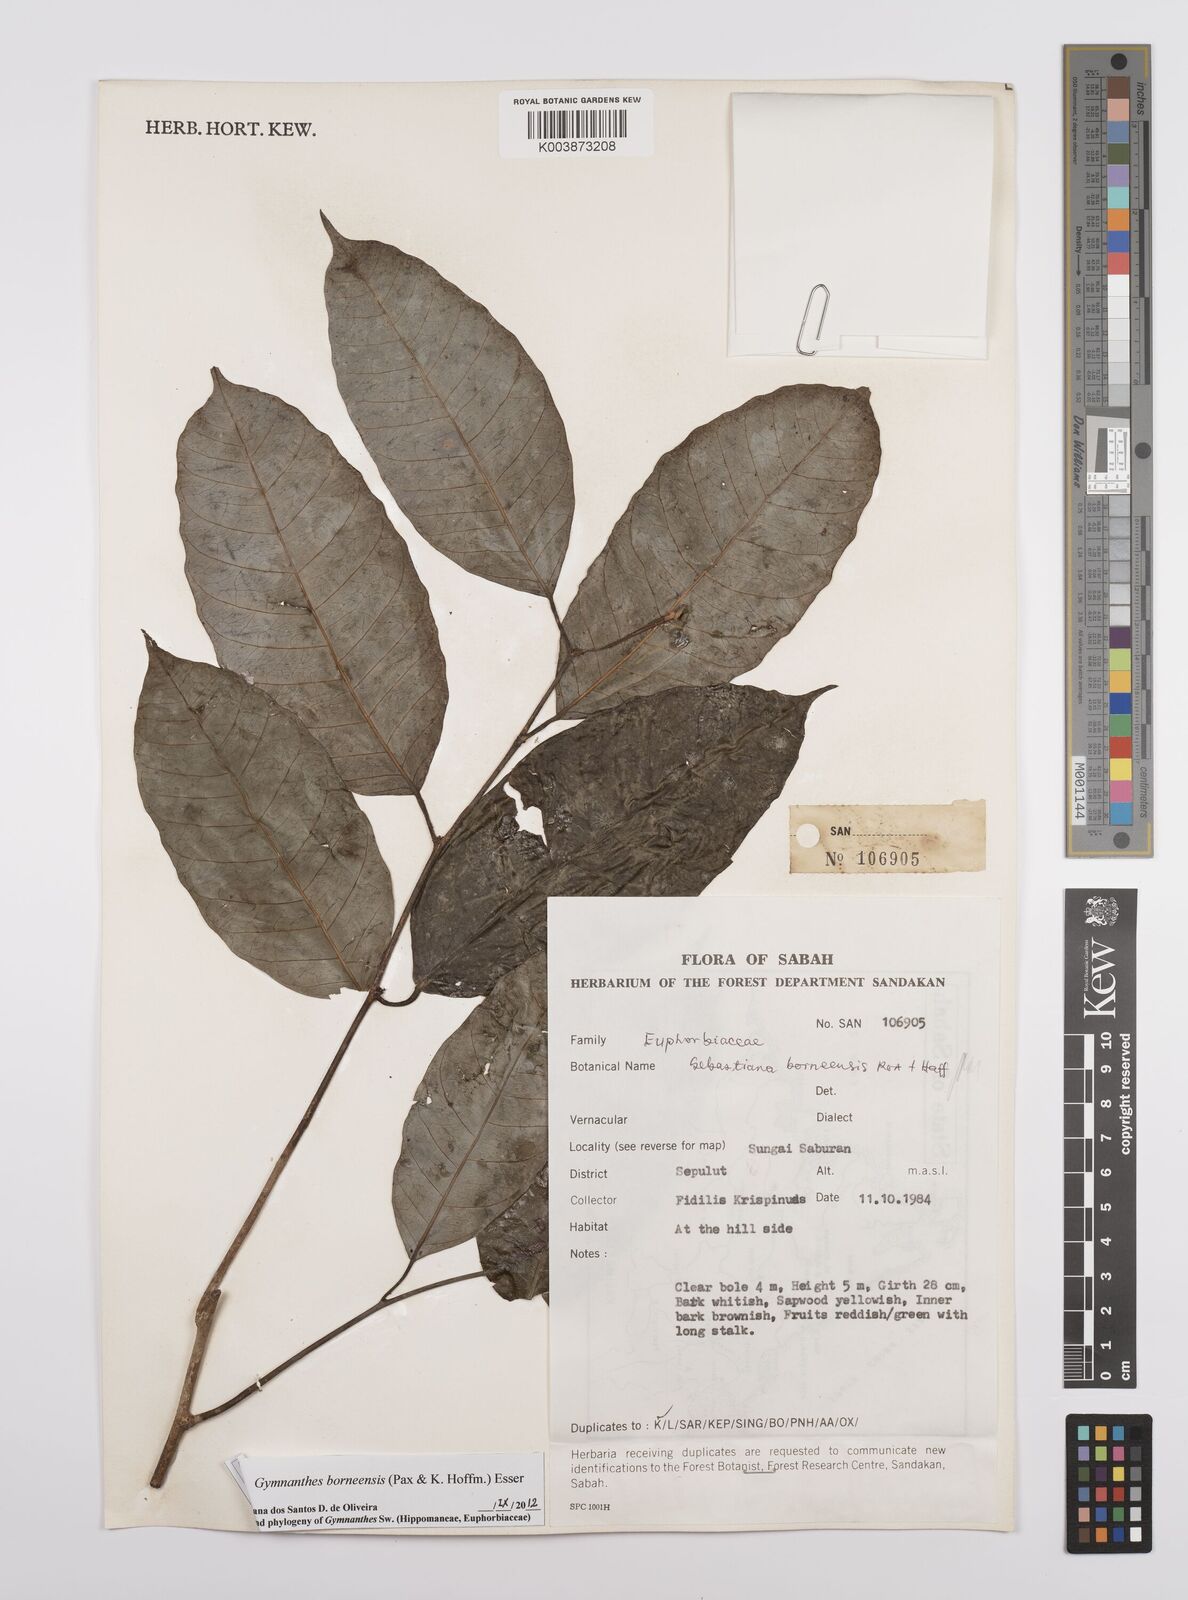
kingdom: Plantae
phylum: Tracheophyta
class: Magnoliopsida
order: Malpighiales
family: Euphorbiaceae
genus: Gymnanthes
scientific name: Gymnanthes borneensis
